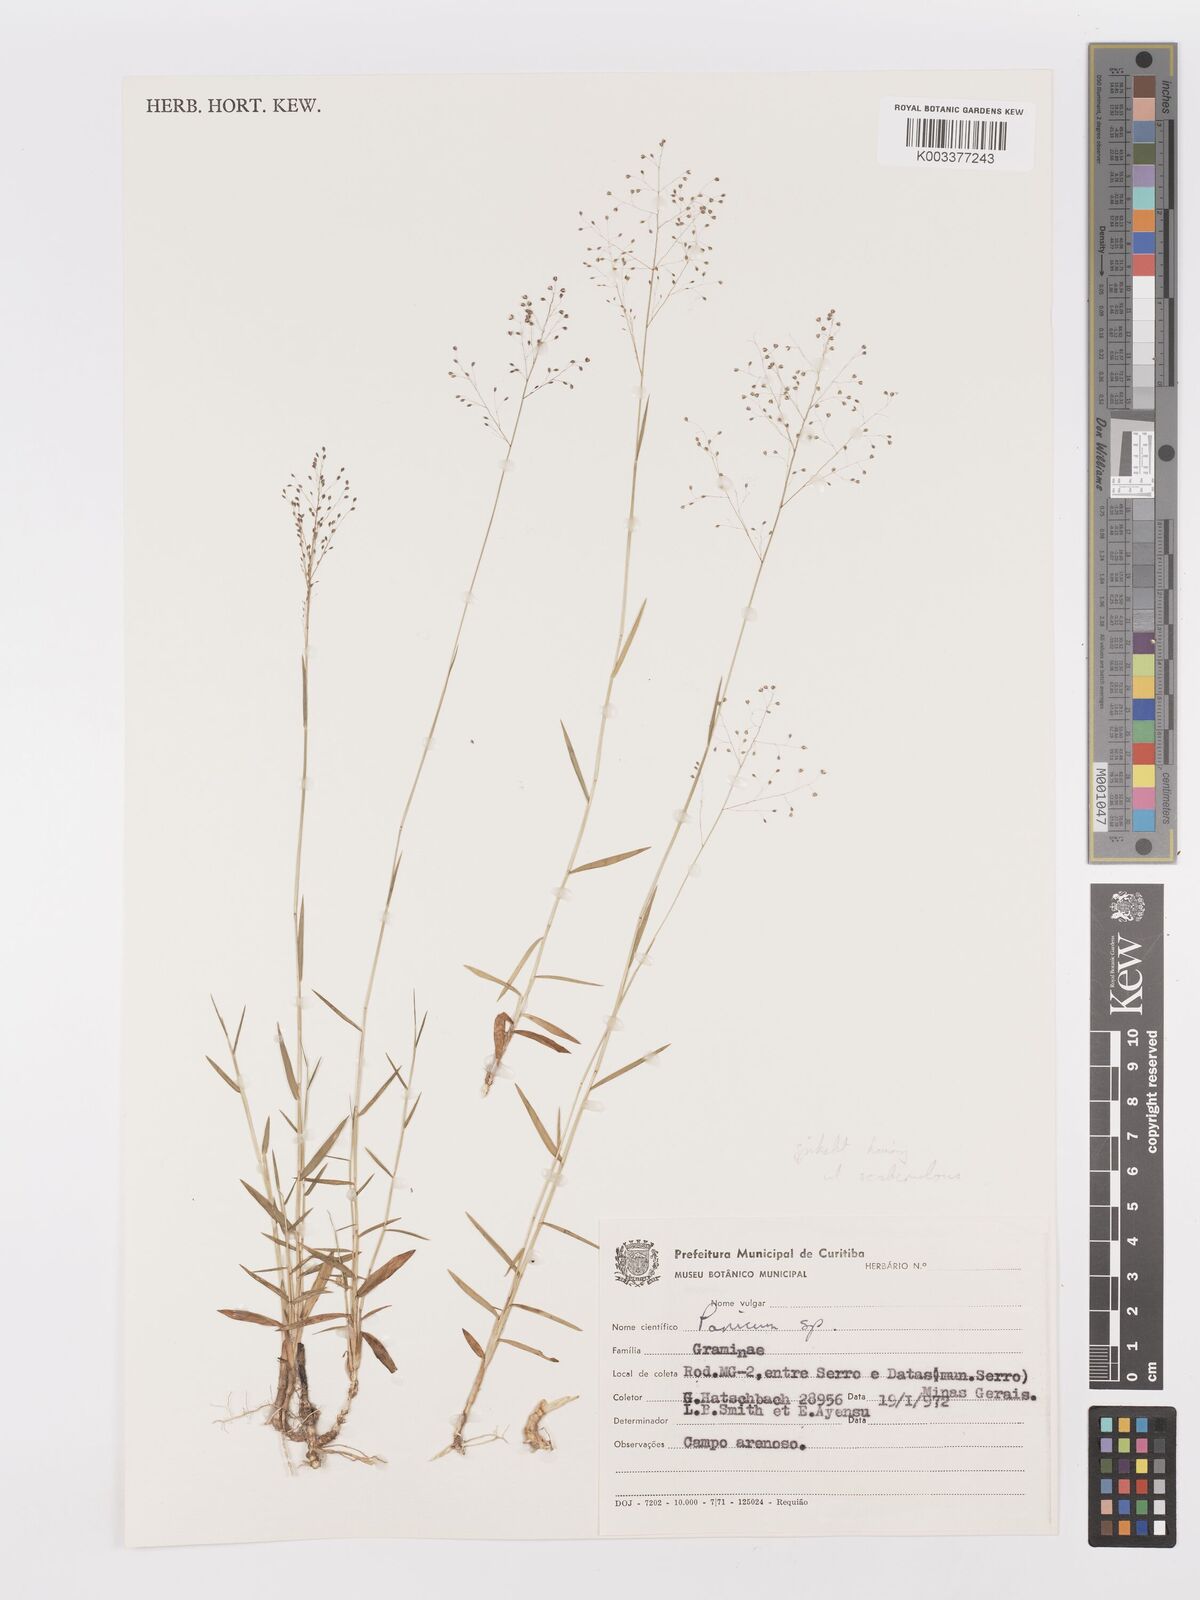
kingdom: Plantae
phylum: Tracheophyta
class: Liliopsida
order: Poales
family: Poaceae
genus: Trichanthecium
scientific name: Trichanthecium pseudisachne
